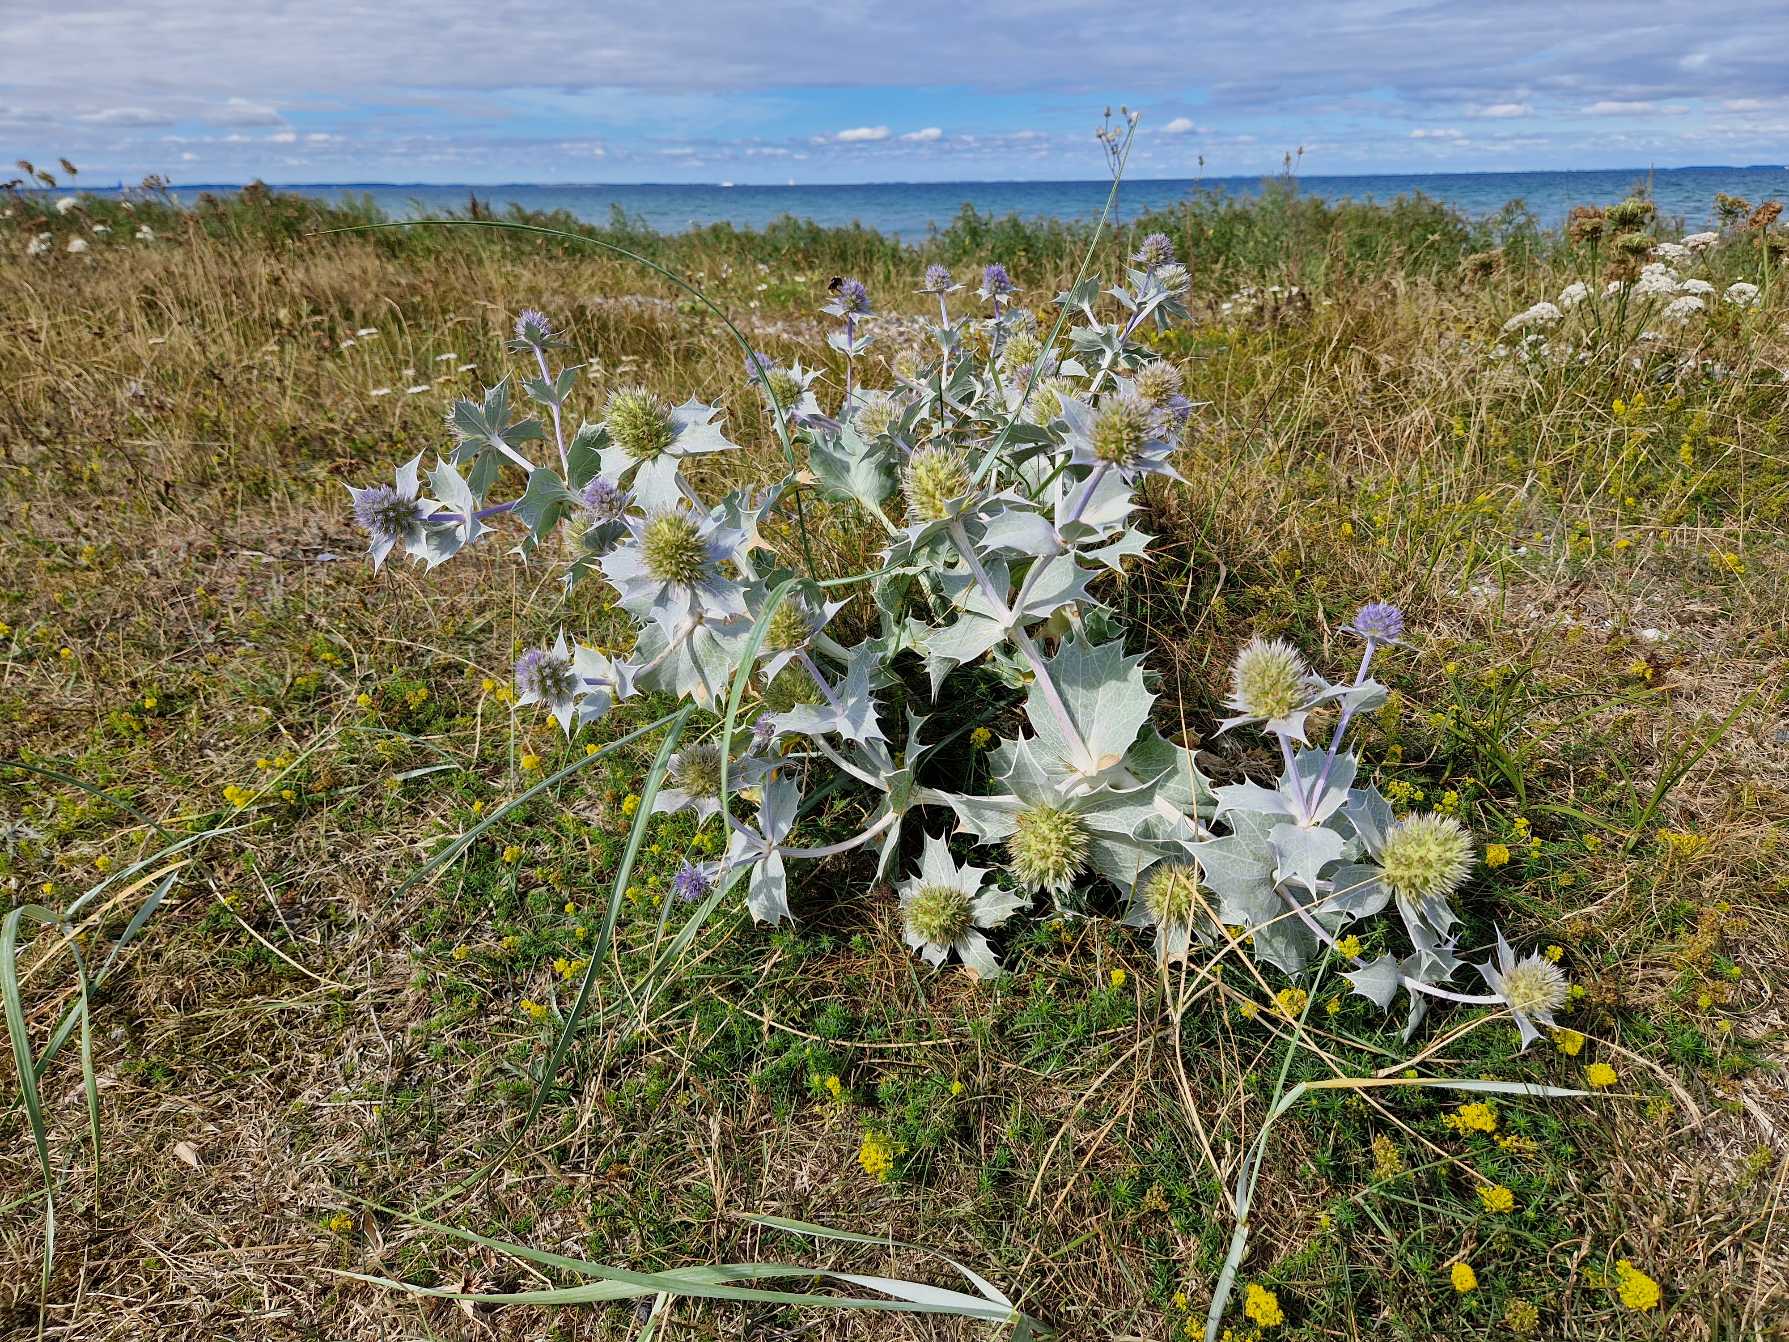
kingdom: Plantae
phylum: Tracheophyta
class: Magnoliopsida
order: Apiales
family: Apiaceae
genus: Eryngium
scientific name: Eryngium maritimum
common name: Strand-mandstro
